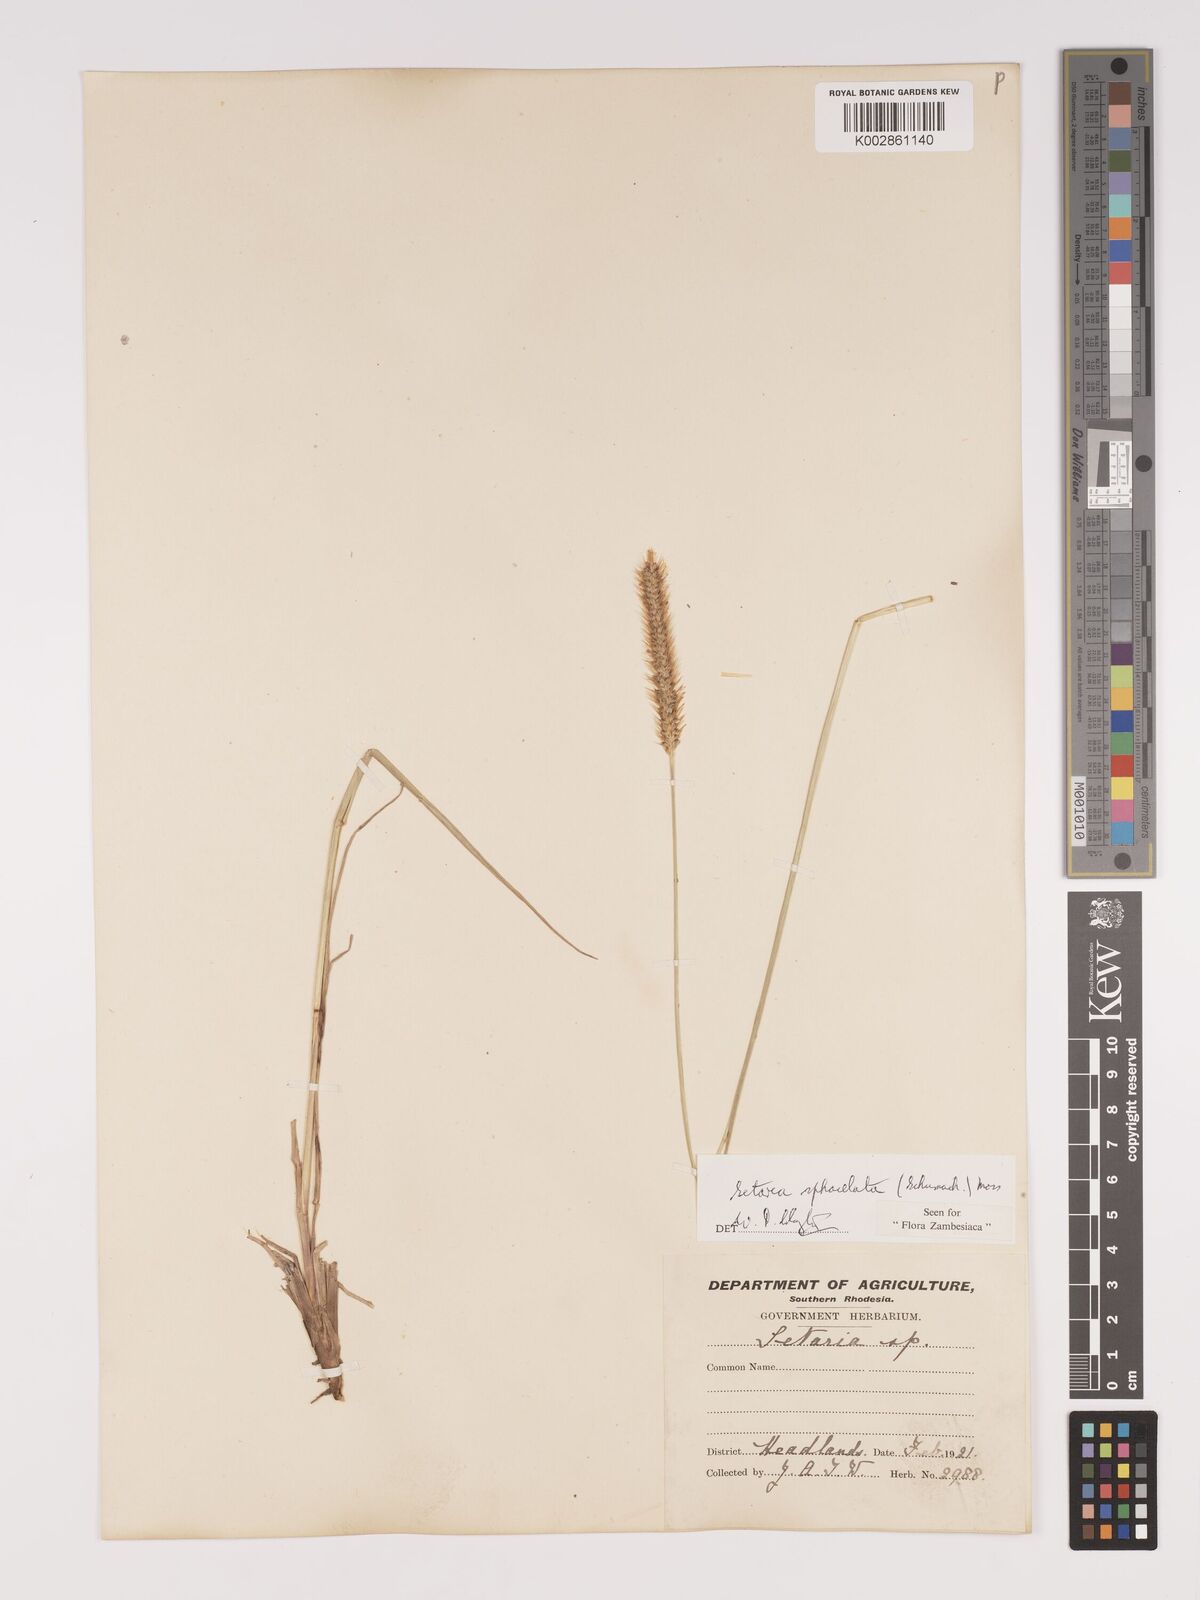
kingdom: Plantae
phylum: Tracheophyta
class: Liliopsida
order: Poales
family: Poaceae
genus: Setaria
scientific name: Setaria sphacelata
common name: African bristlegrass
